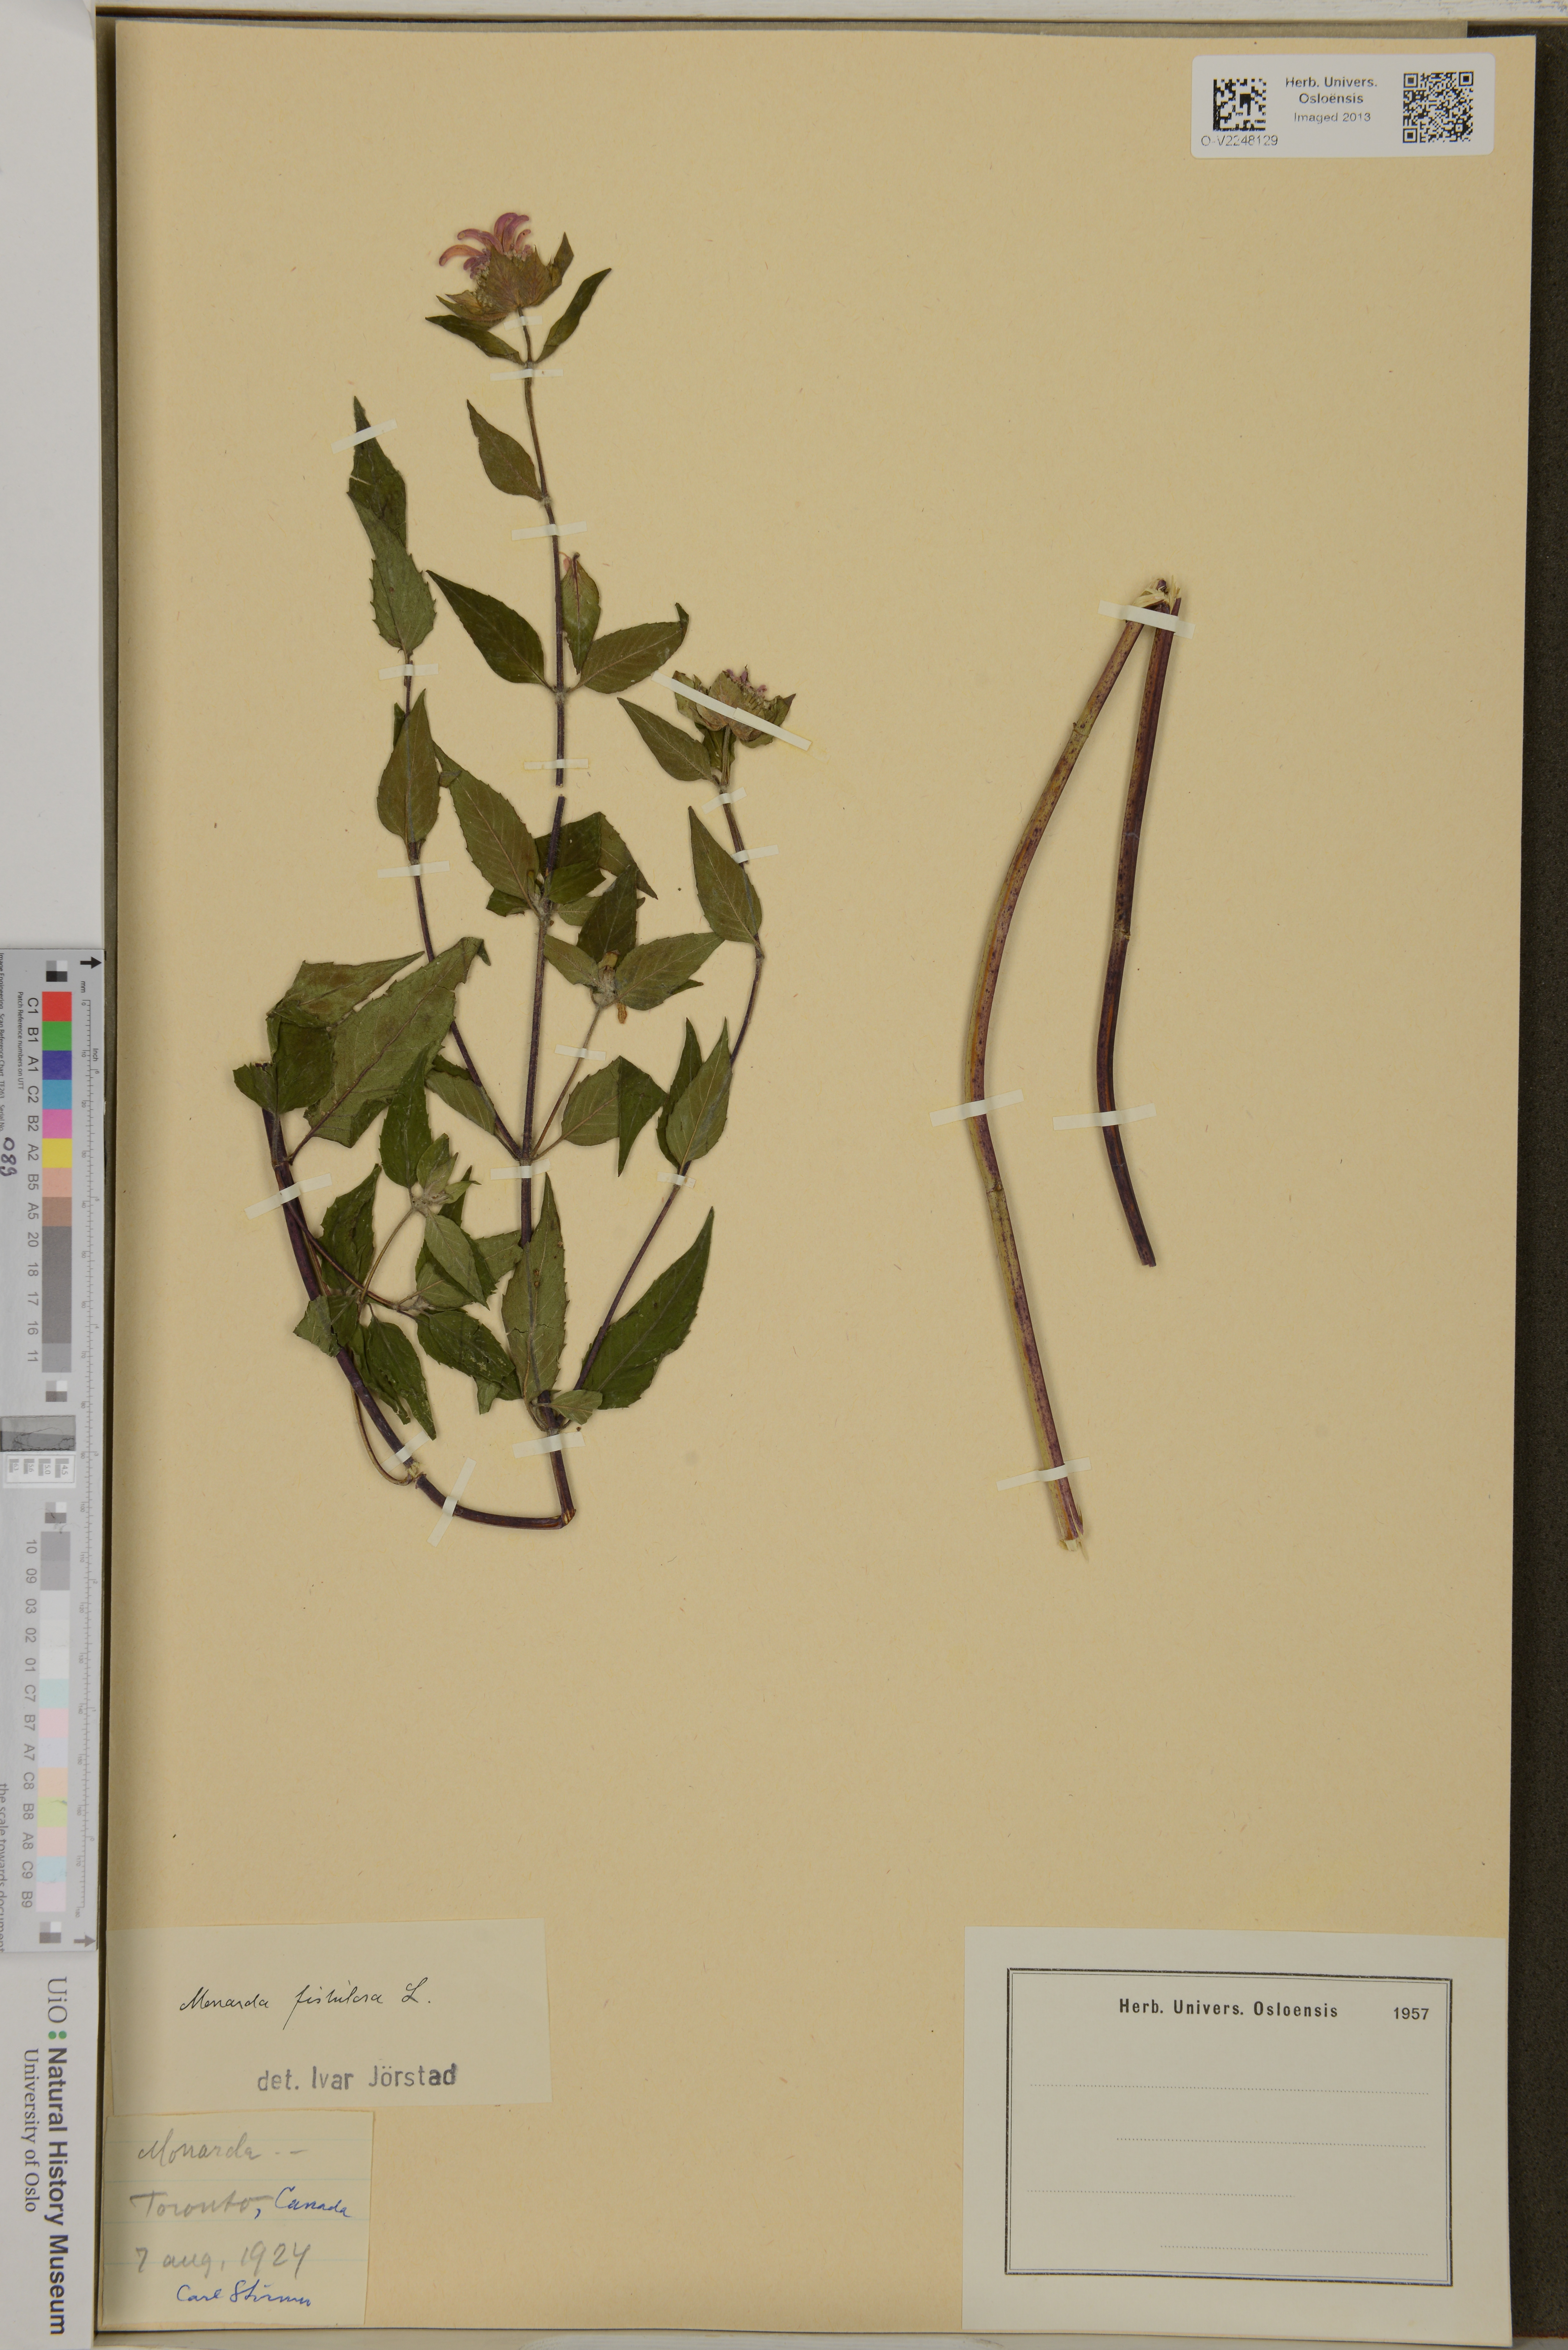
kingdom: Plantae
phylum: Tracheophyta
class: Magnoliopsida
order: Lamiales
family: Lamiaceae
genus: Monarda
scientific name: Monarda fistulosa
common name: Purple beebalm
